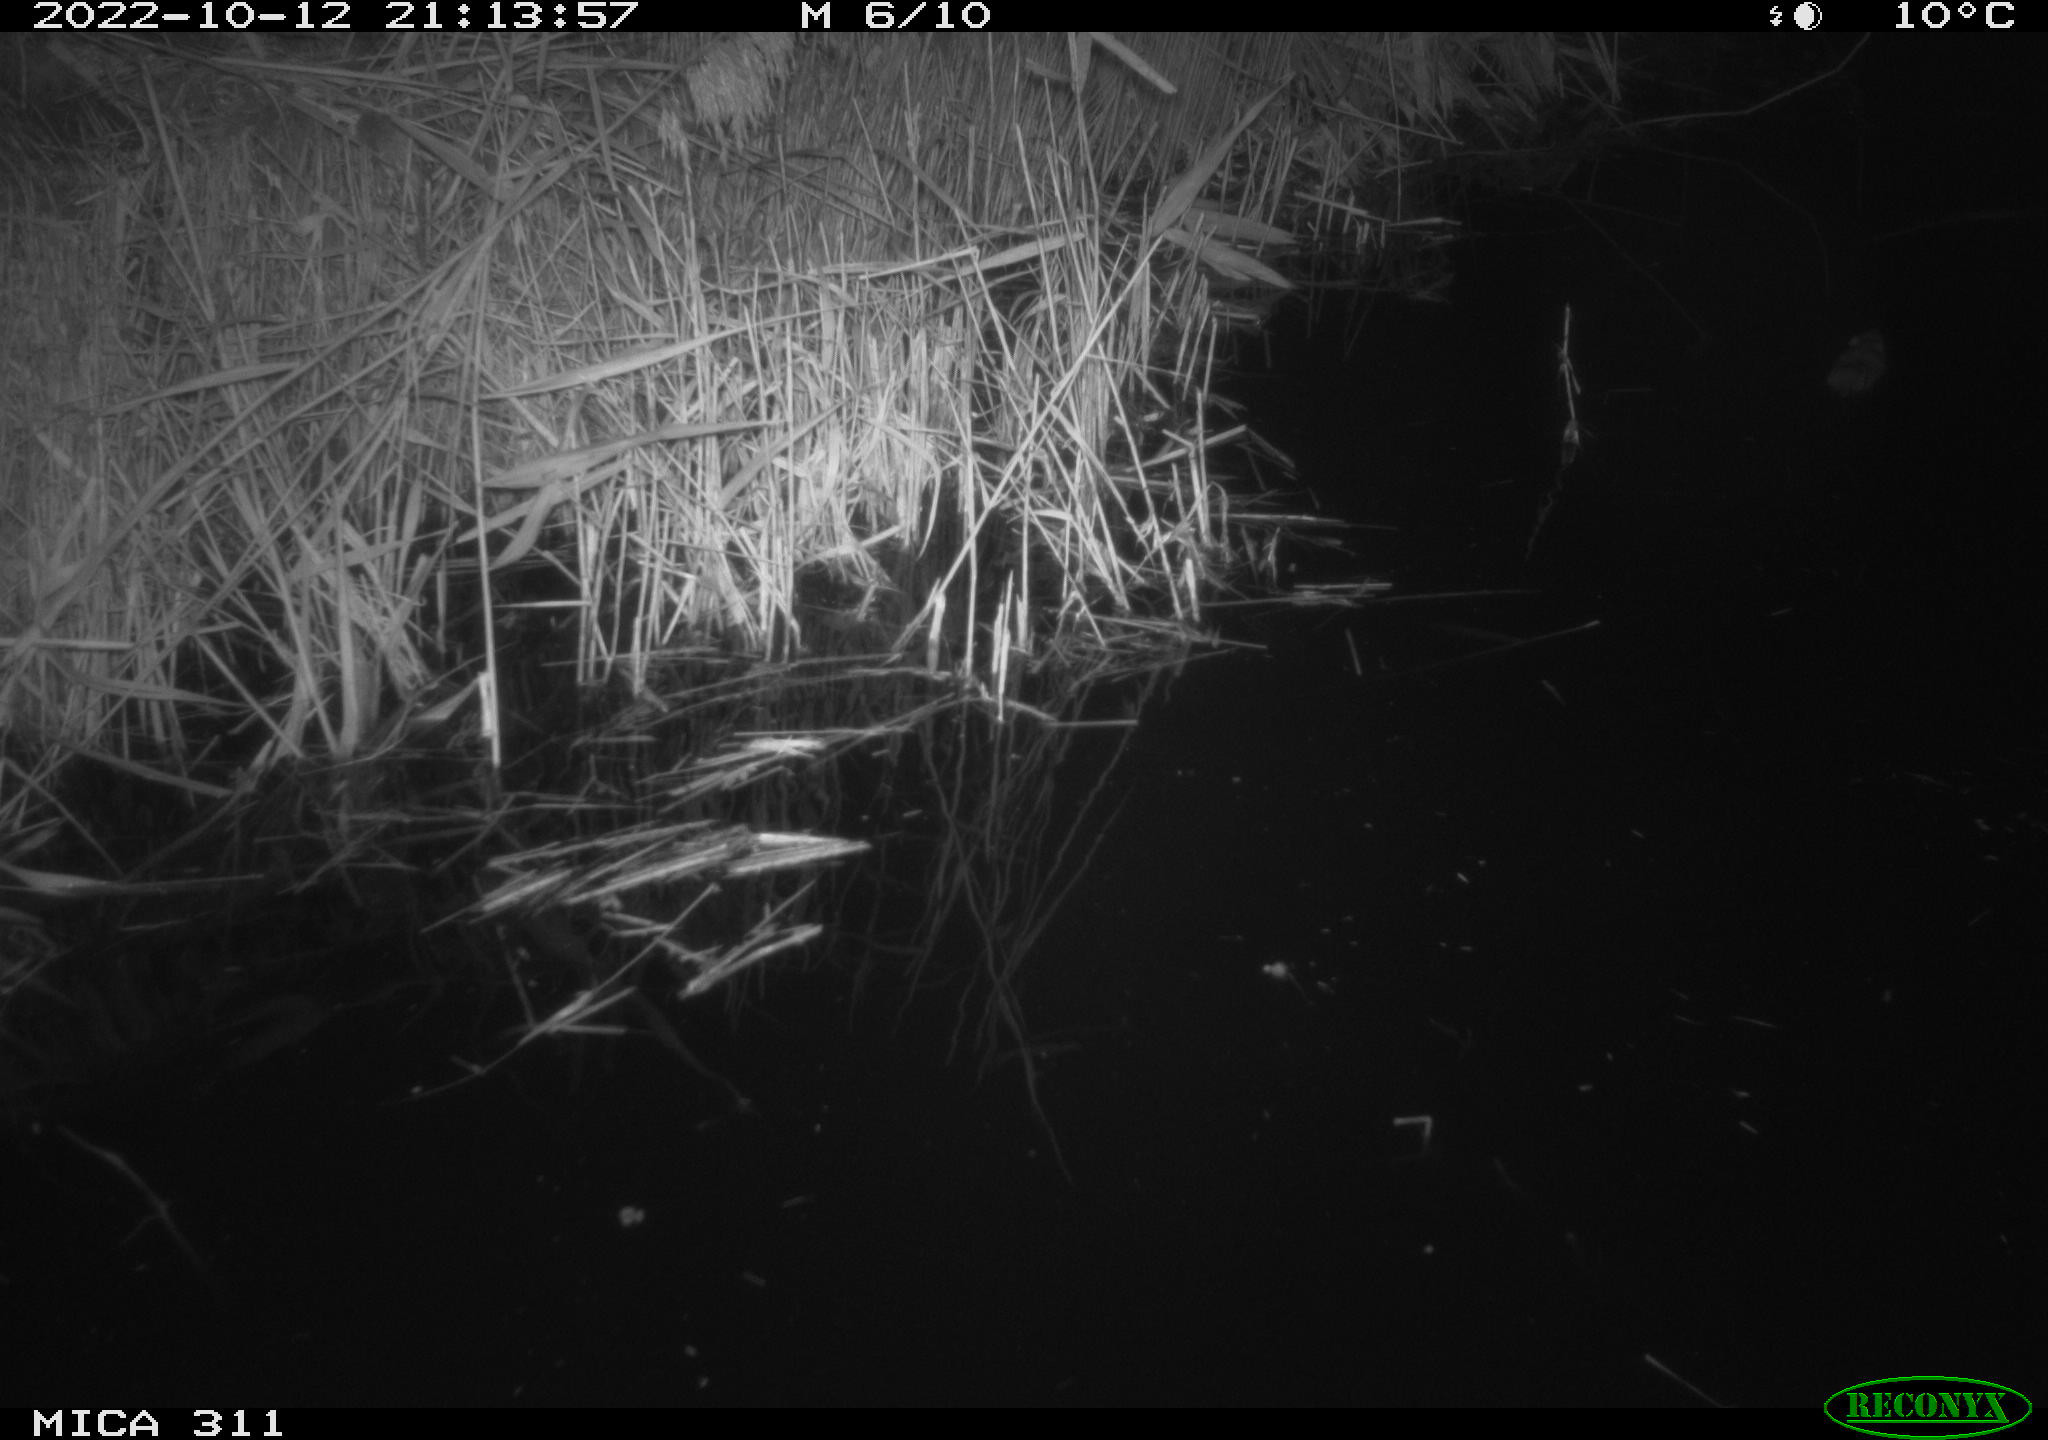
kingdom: Animalia
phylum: Chordata
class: Mammalia
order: Rodentia
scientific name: Rodentia
